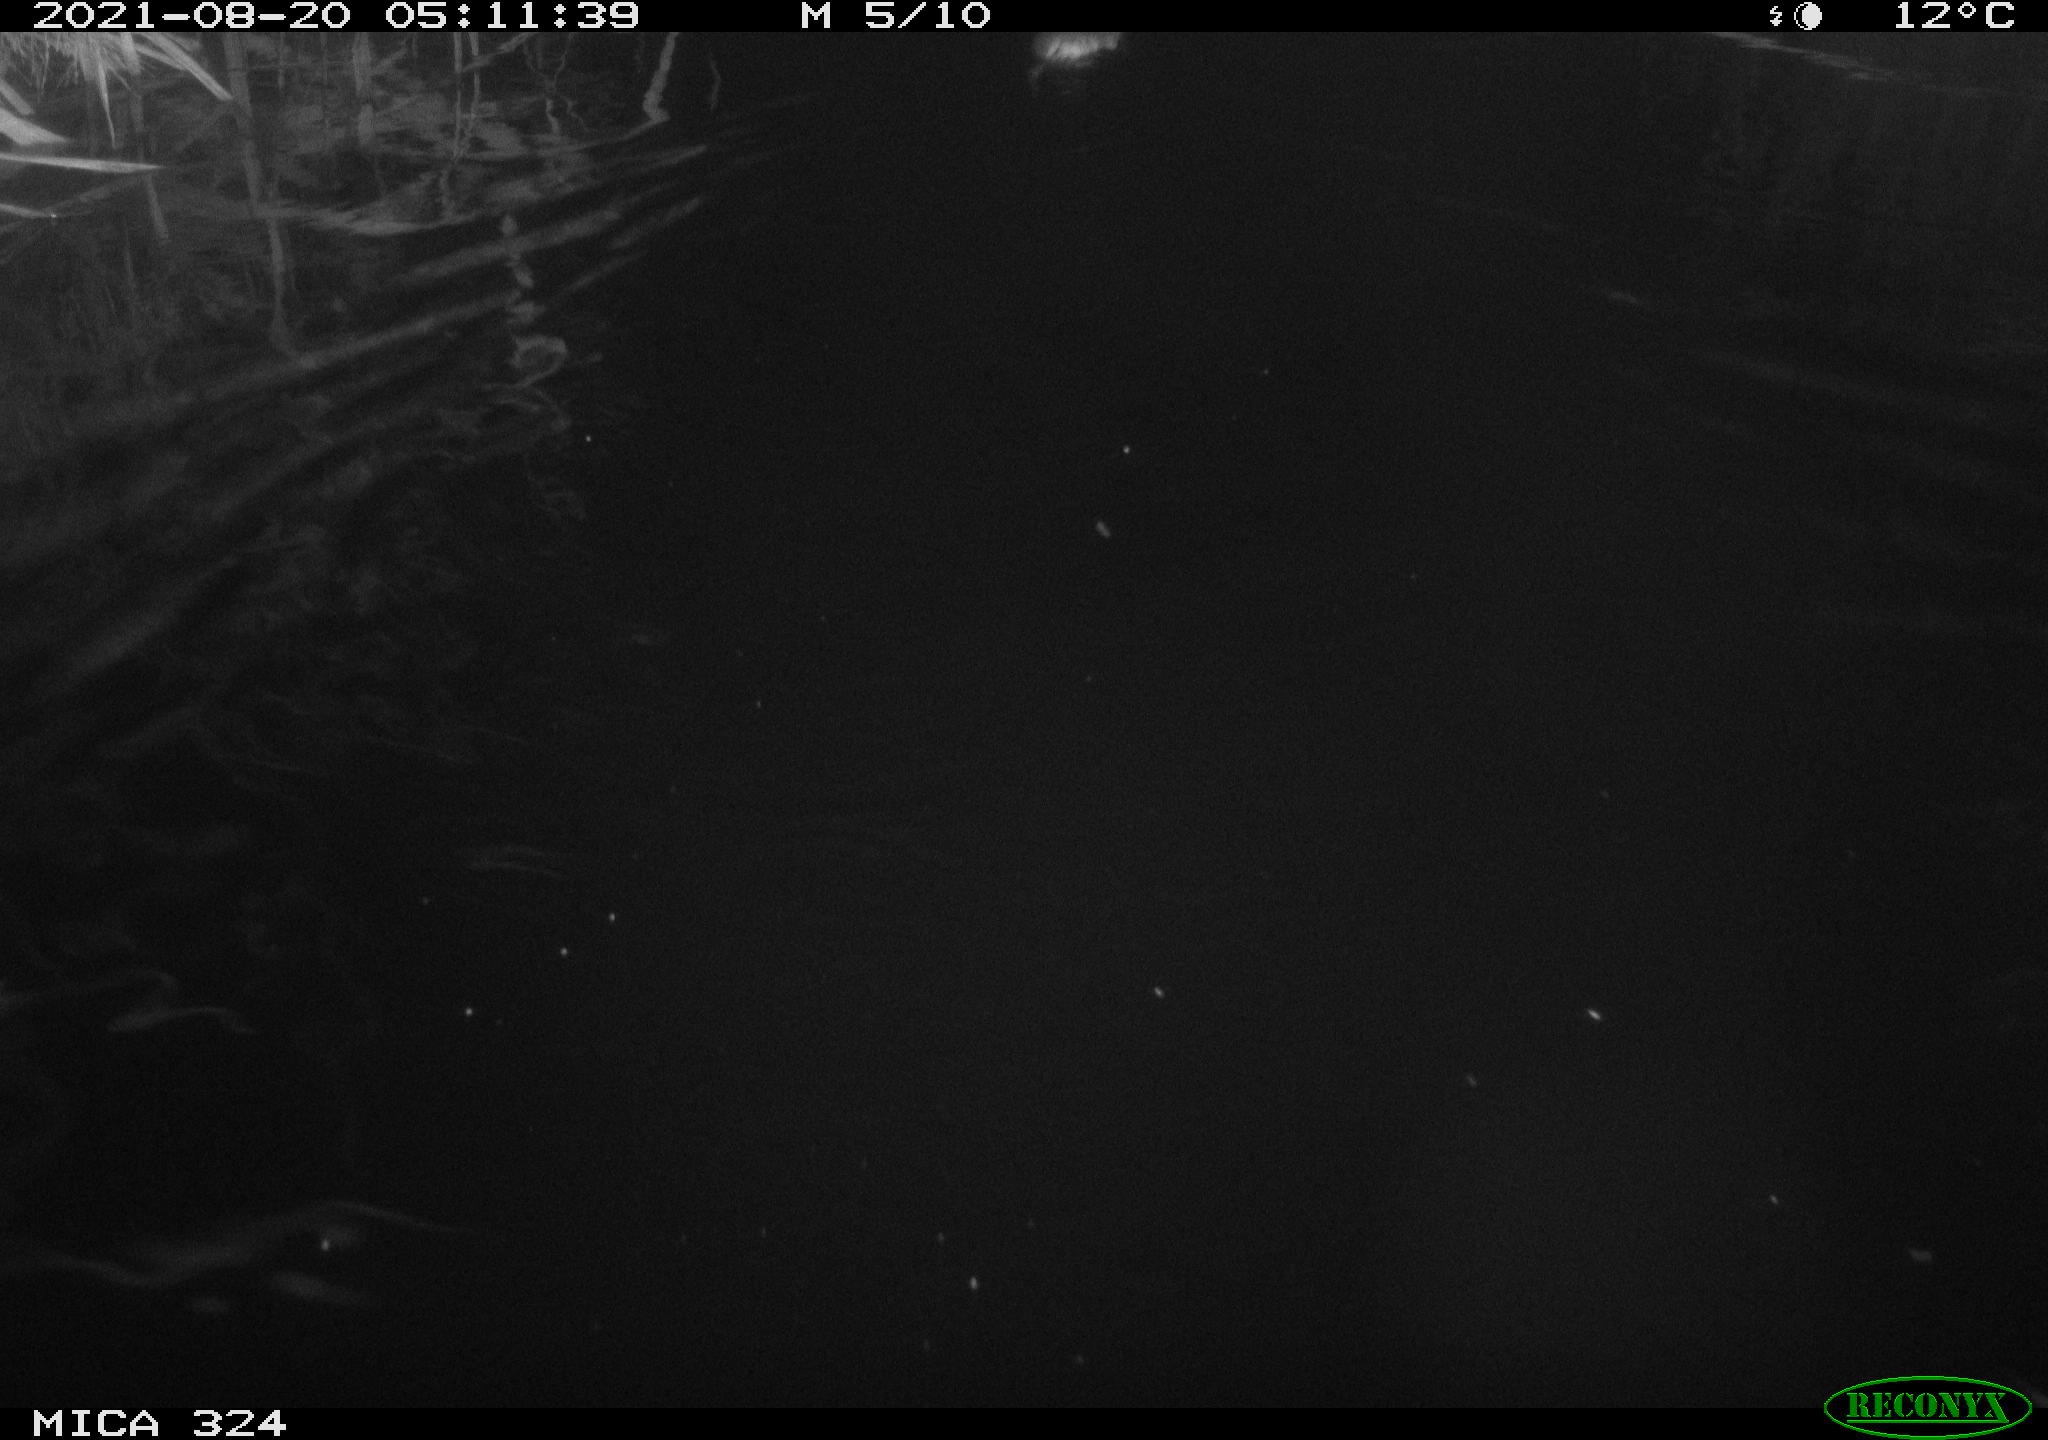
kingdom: Animalia
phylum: Chordata
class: Mammalia
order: Rodentia
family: Cricetidae
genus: Ondatra
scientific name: Ondatra zibethicus
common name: Muskrat
